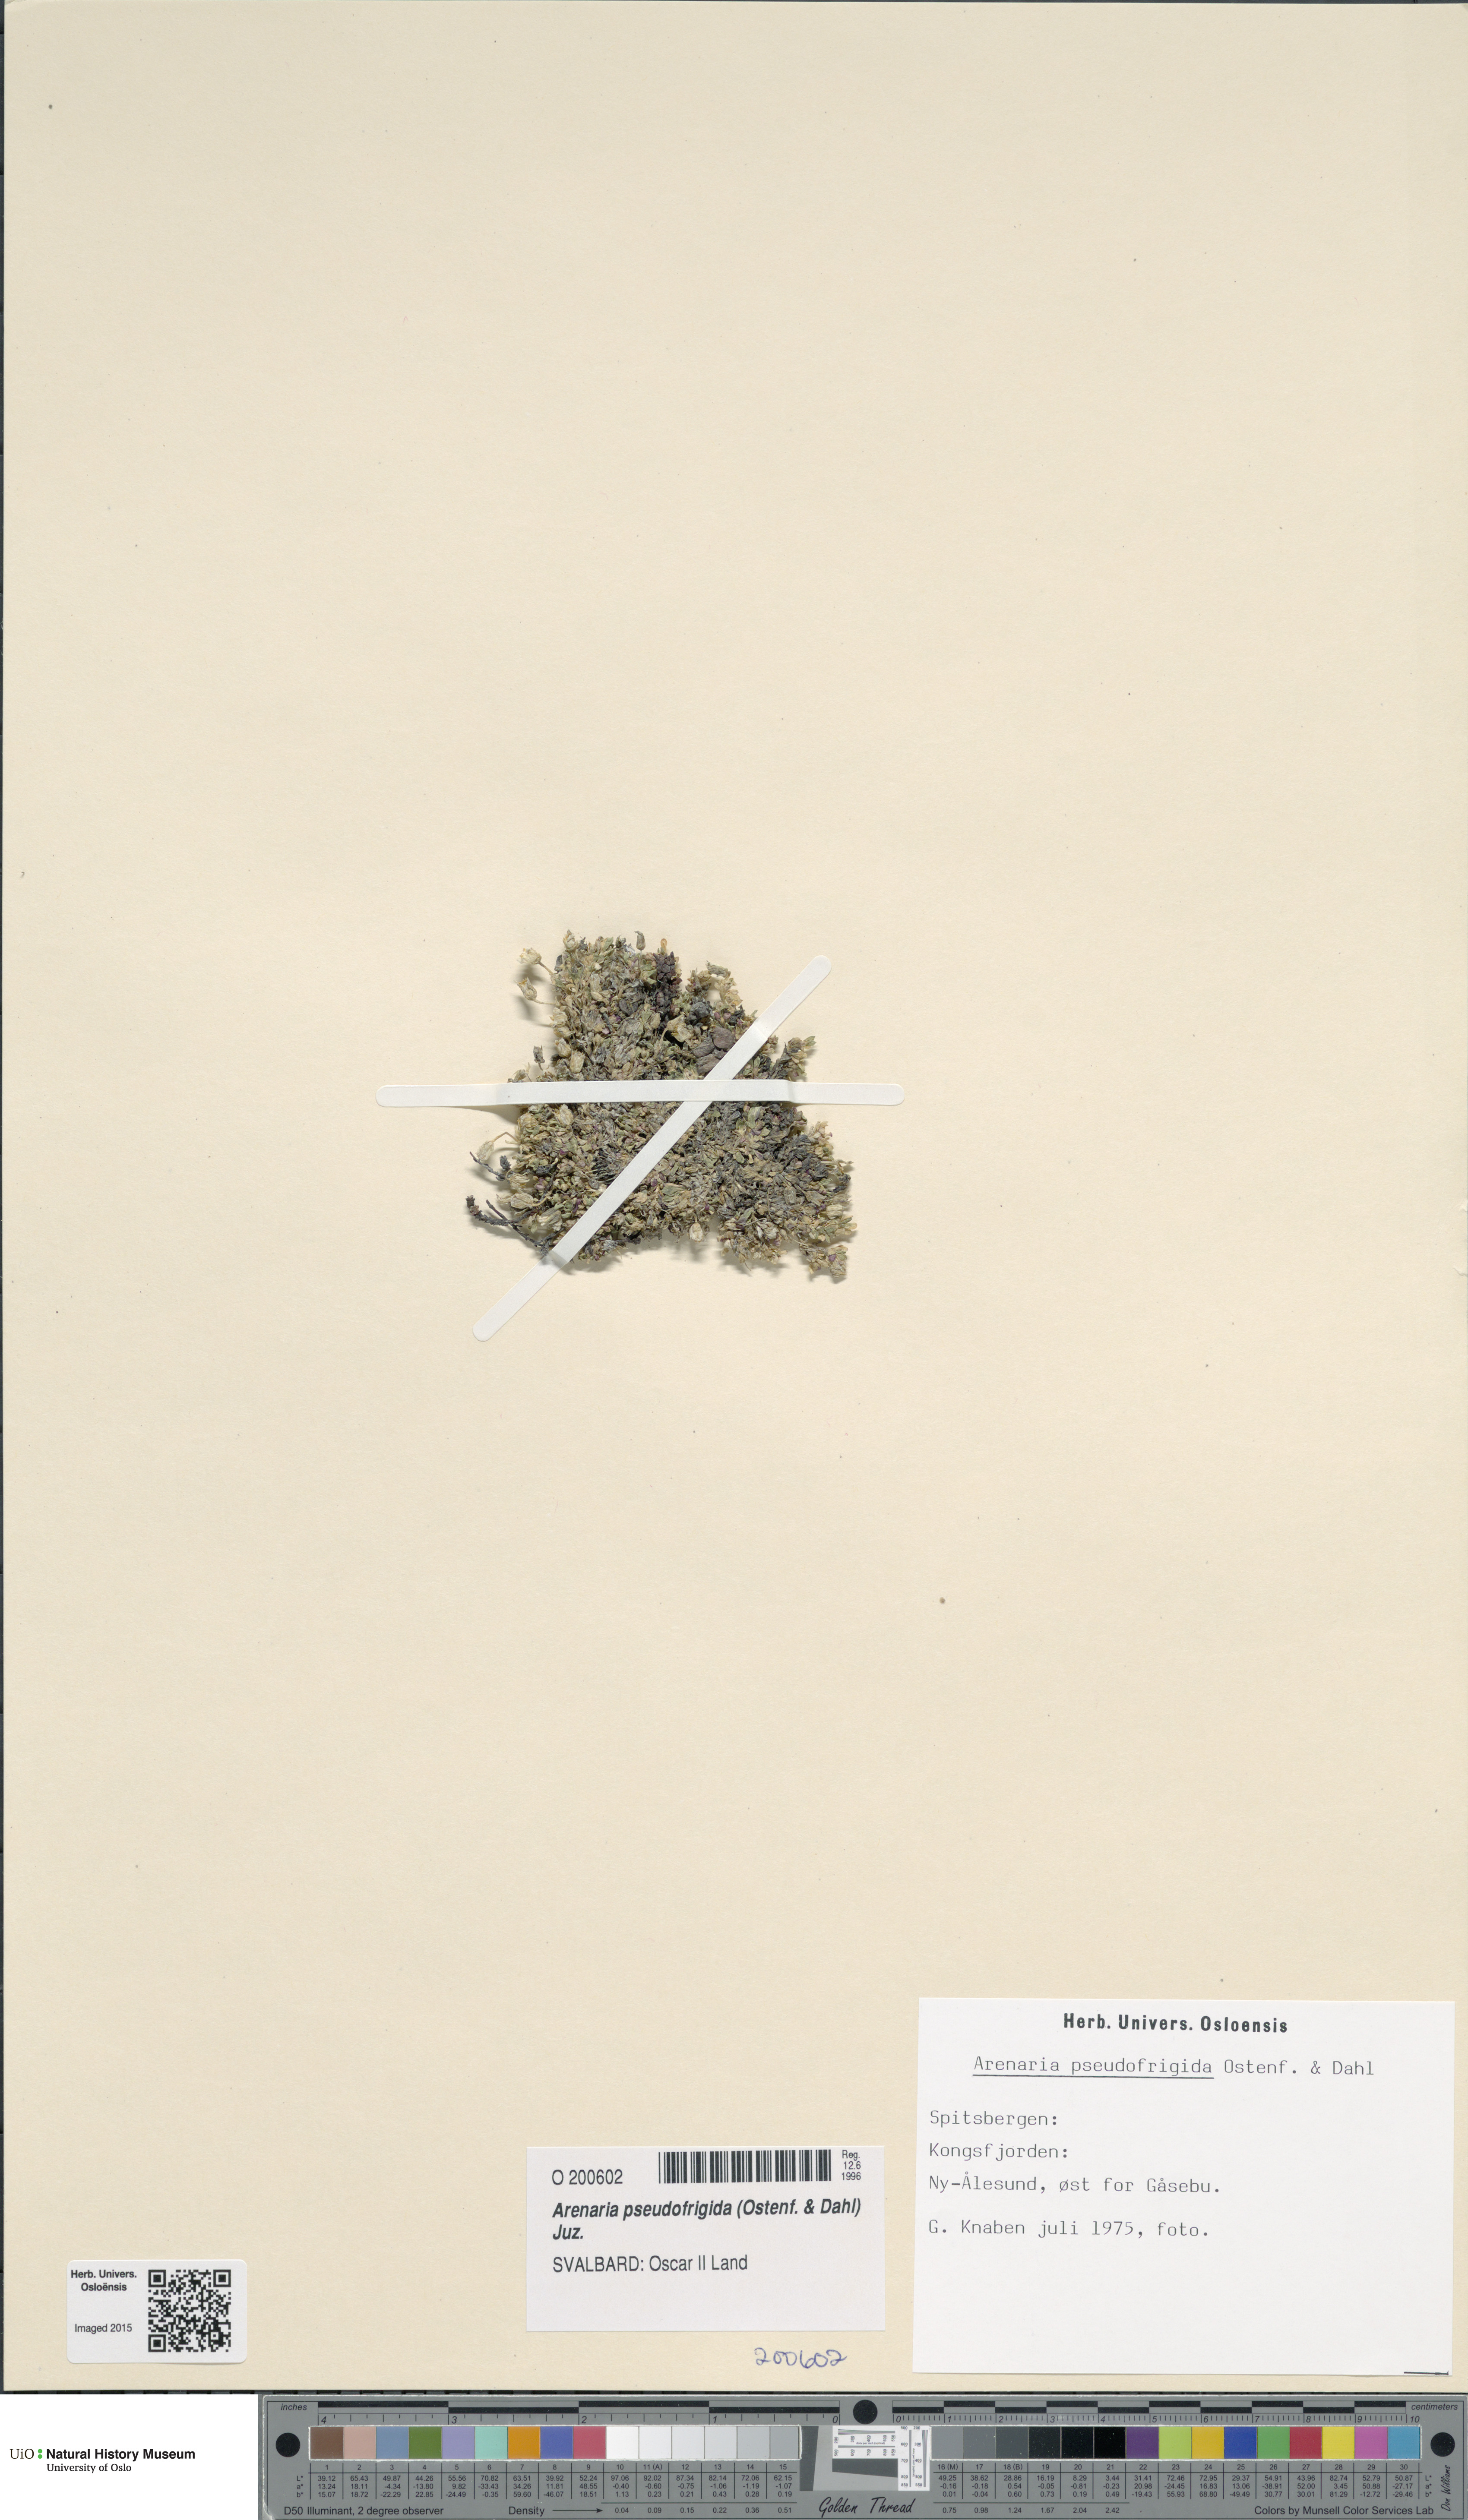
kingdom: Plantae
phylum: Tracheophyta
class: Magnoliopsida
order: Caryophyllales
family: Caryophyllaceae
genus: Arenaria
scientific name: Arenaria pseudofrigida
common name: Tundra sandwort
